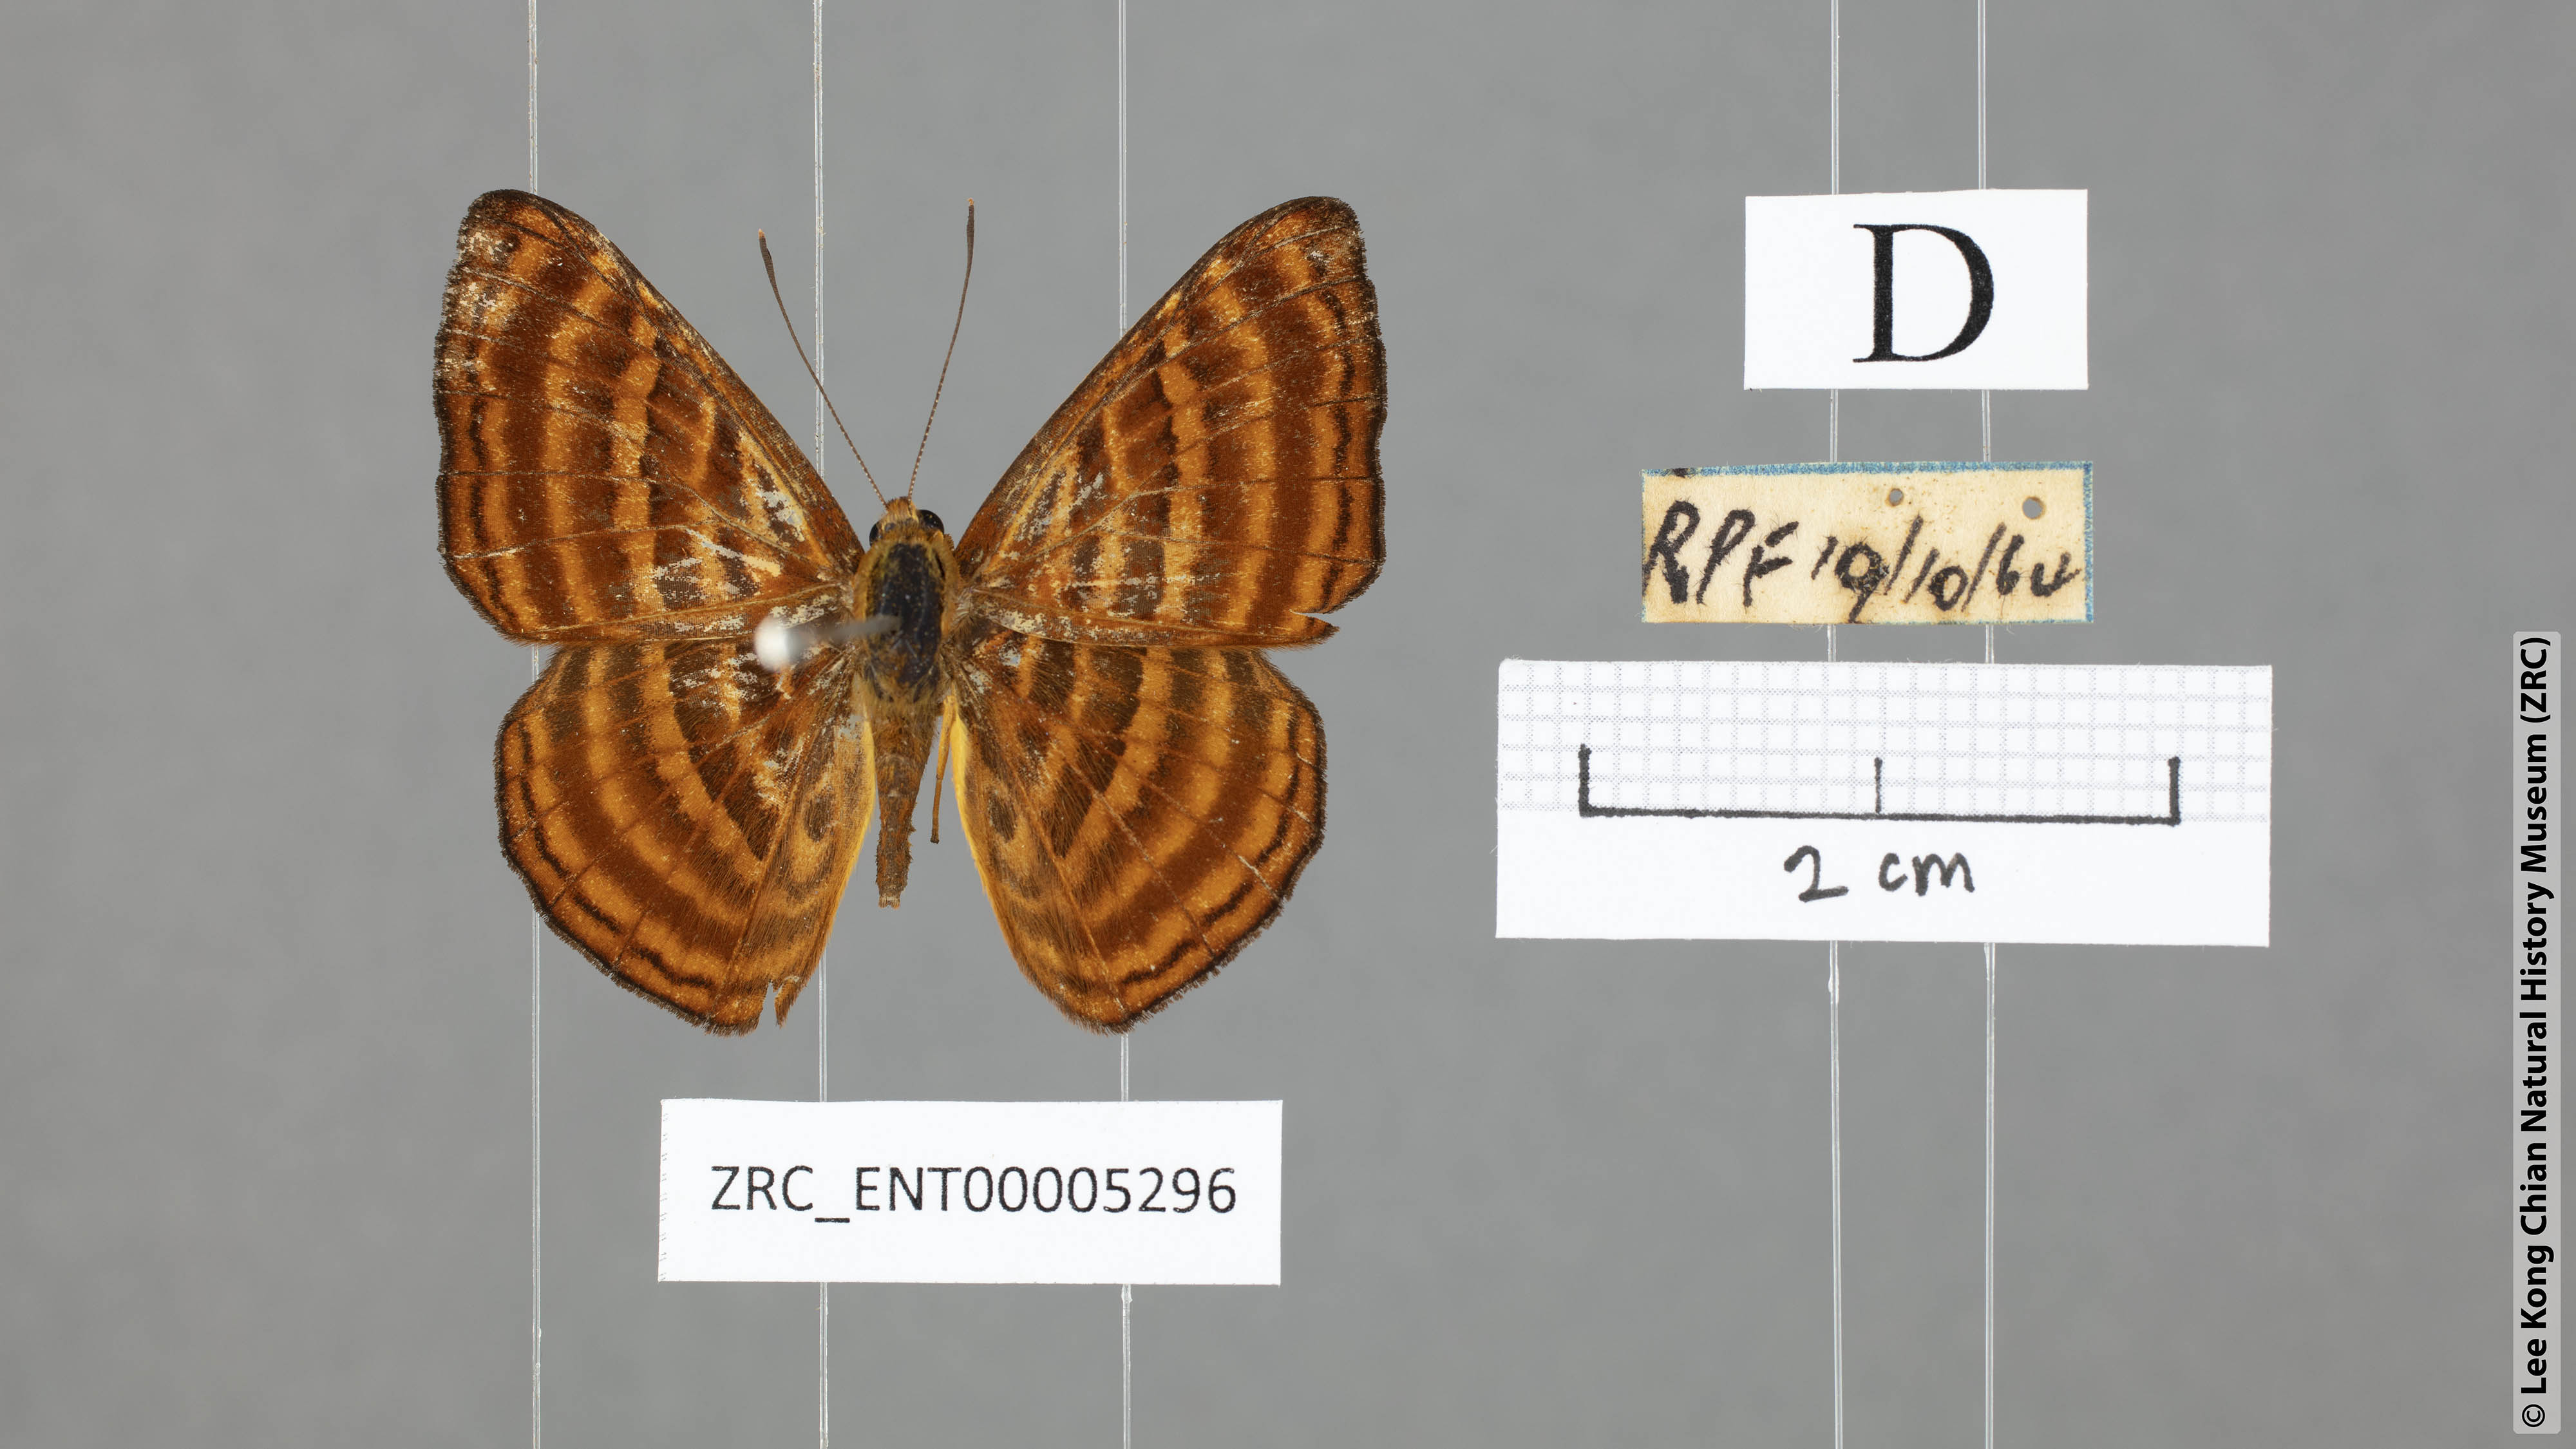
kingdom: Animalia
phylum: Arthropoda
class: Insecta
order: Lepidoptera
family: Riodinidae
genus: Zemeros
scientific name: Zemeros emesoides
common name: Malay punchinello
